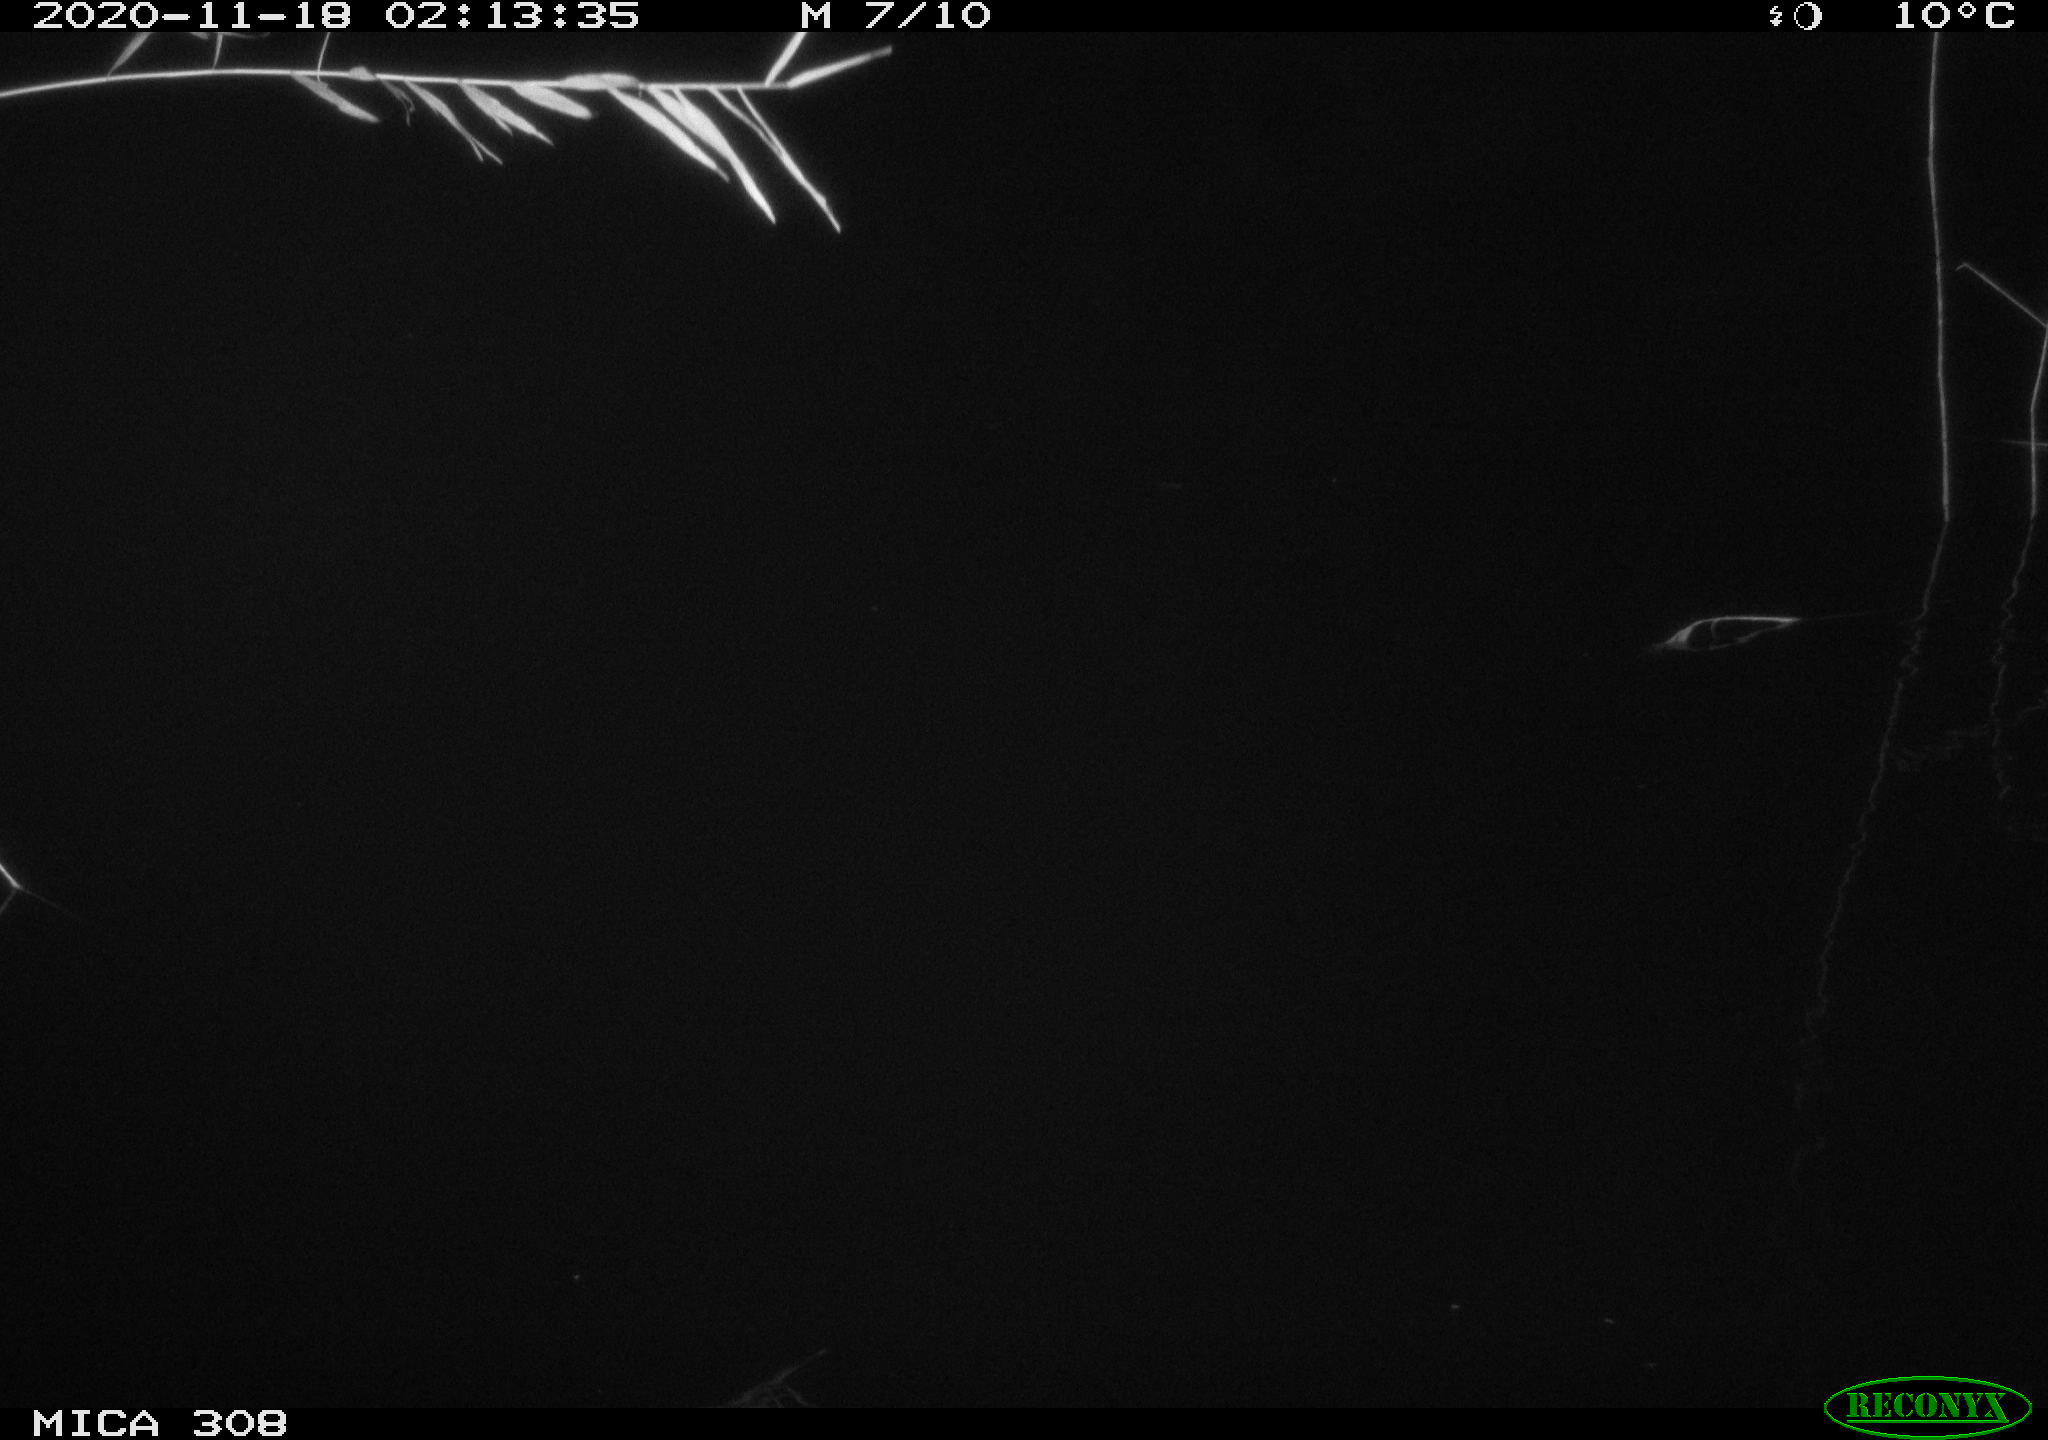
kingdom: Animalia
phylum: Chordata
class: Mammalia
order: Rodentia
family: Muridae
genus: Rattus
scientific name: Rattus norvegicus
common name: Brown rat
